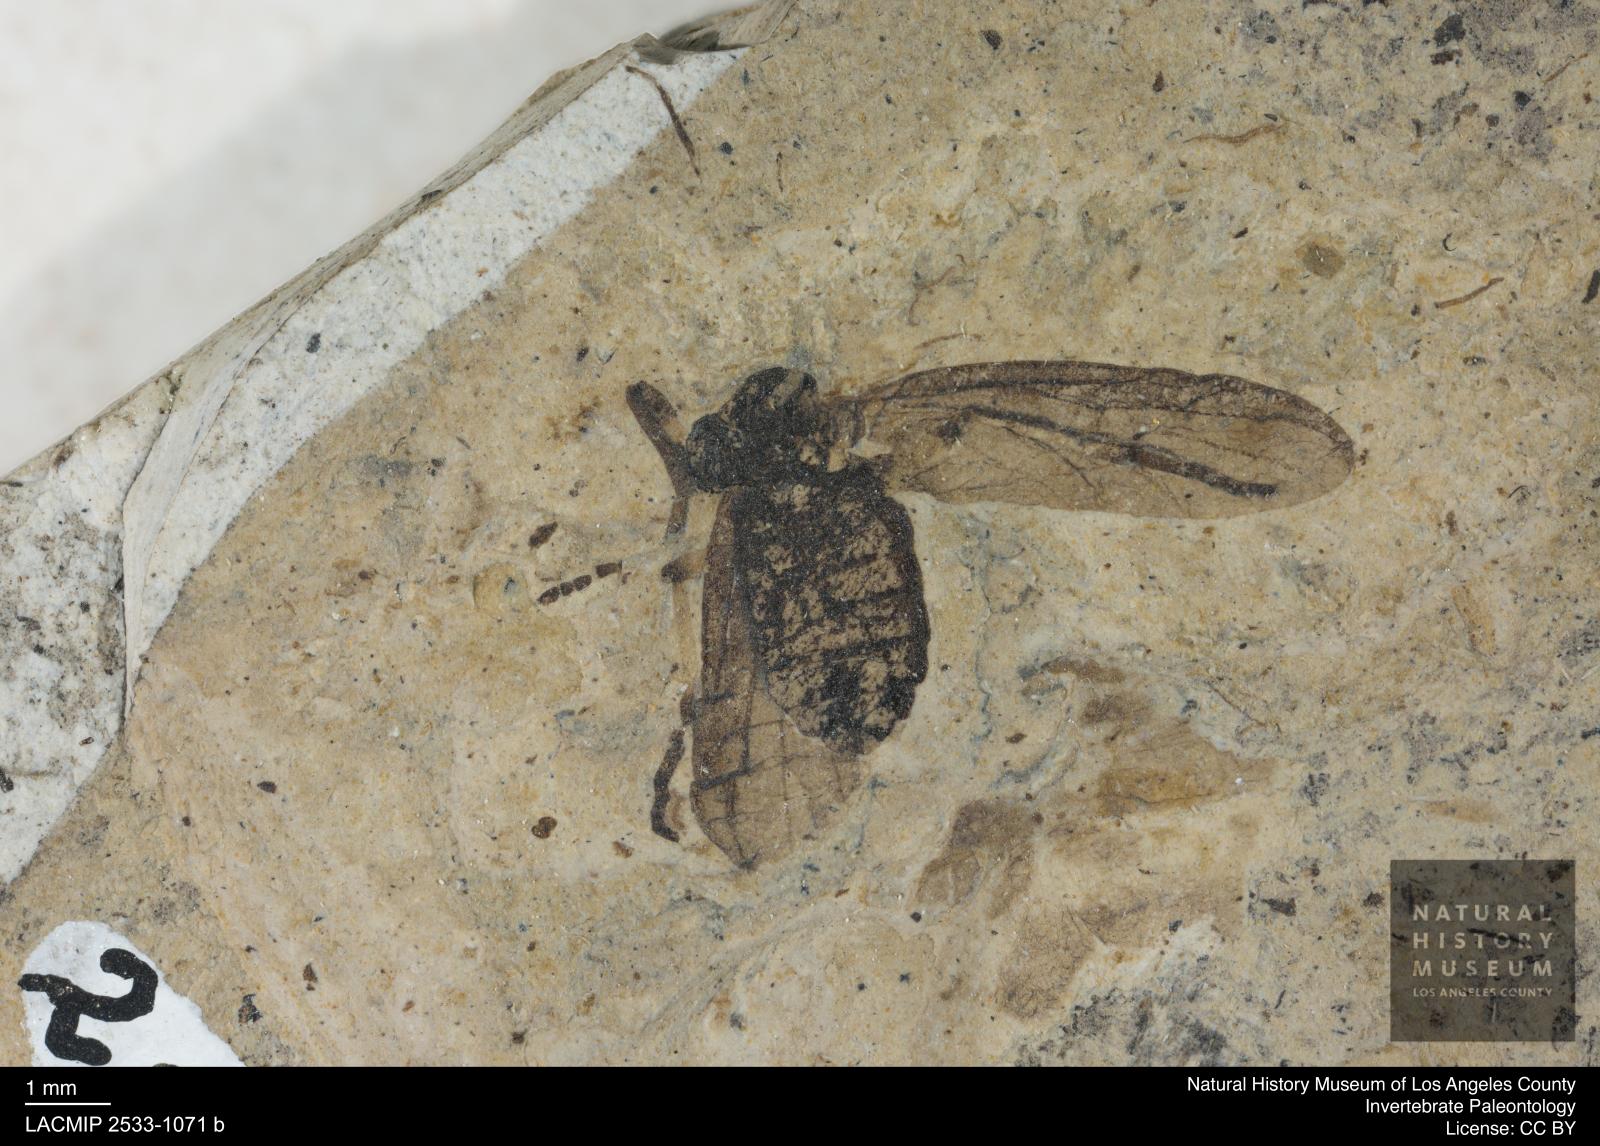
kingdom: Animalia
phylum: Arthropoda
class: Insecta
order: Diptera
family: Bibionidae
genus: Plecia
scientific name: Plecia stygia
